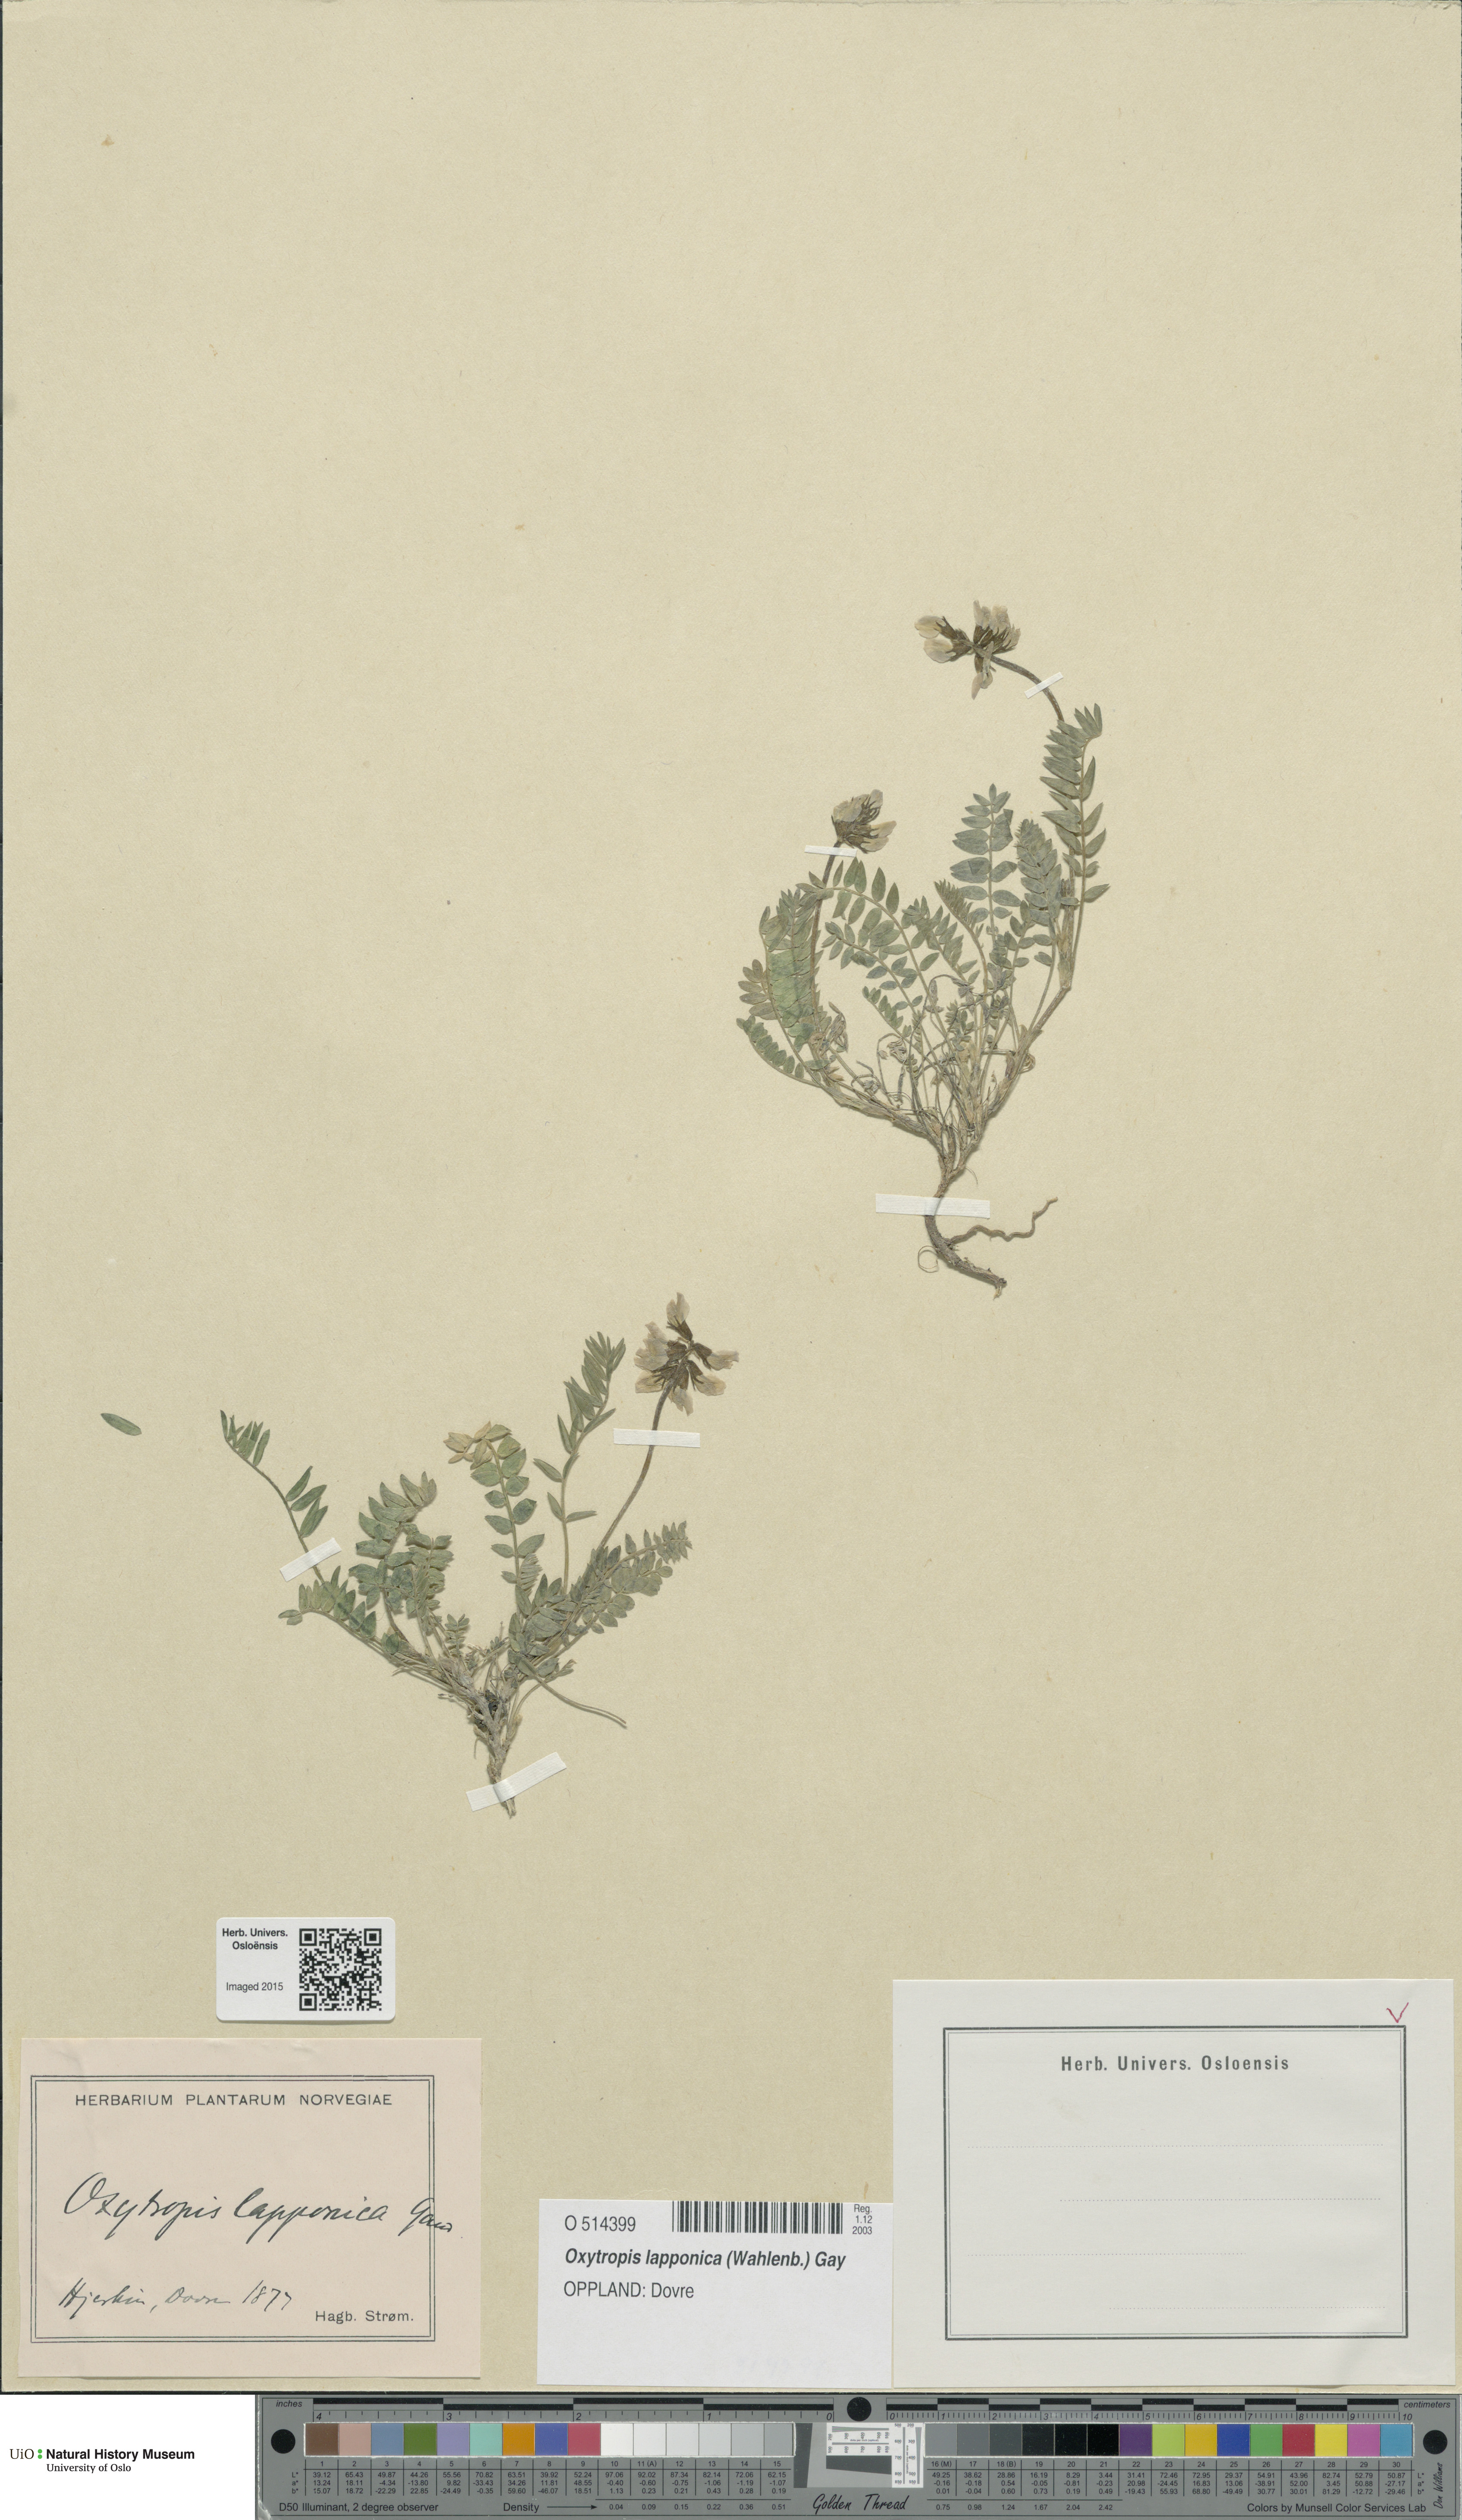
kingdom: Plantae
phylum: Tracheophyta
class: Magnoliopsida
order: Fabales
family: Fabaceae
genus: Oxytropis
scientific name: Oxytropis lapponica
